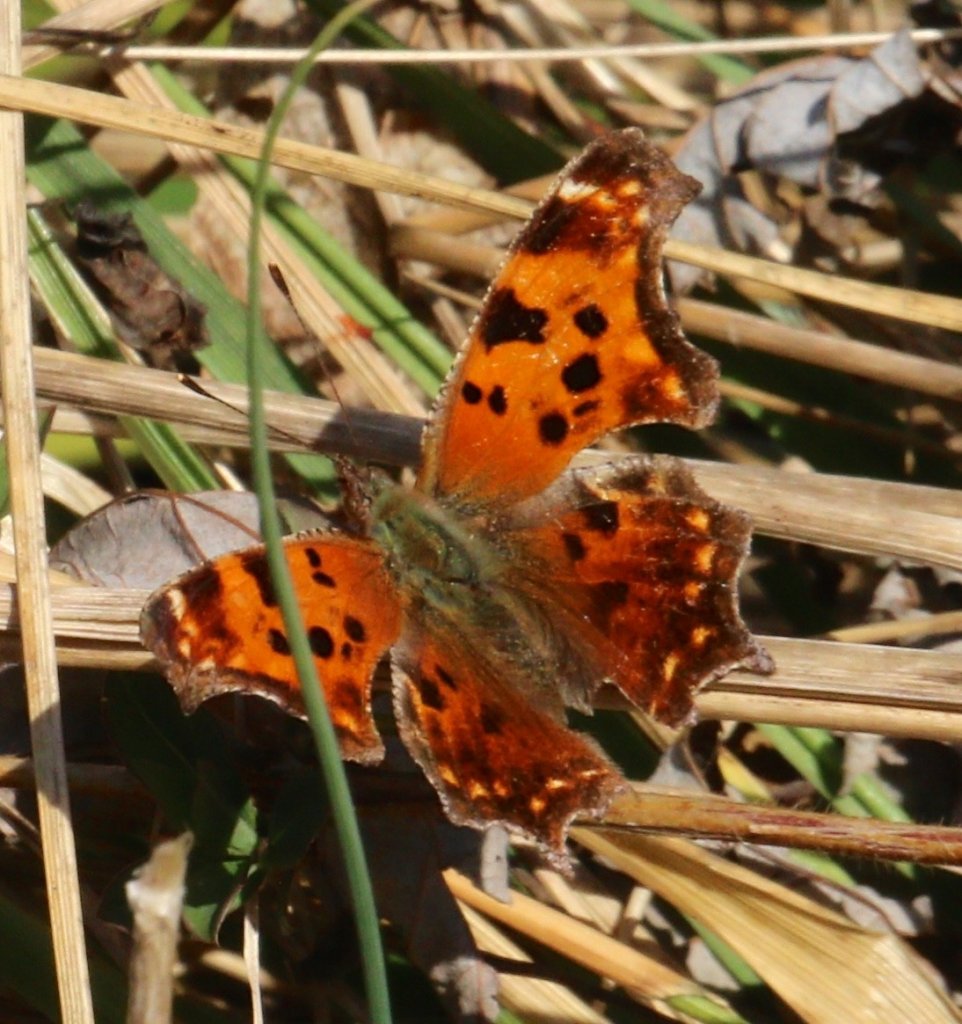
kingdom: Animalia
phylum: Arthropoda
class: Insecta
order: Lepidoptera
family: Nymphalidae
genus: Polygonia
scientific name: Polygonia comma
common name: Eastern Comma
